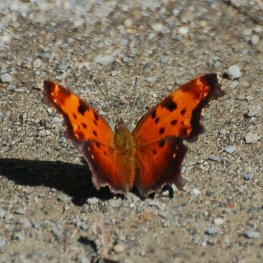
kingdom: Animalia
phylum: Arthropoda
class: Insecta
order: Lepidoptera
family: Nymphalidae
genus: Polygonia
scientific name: Polygonia progne
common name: Gray Comma
